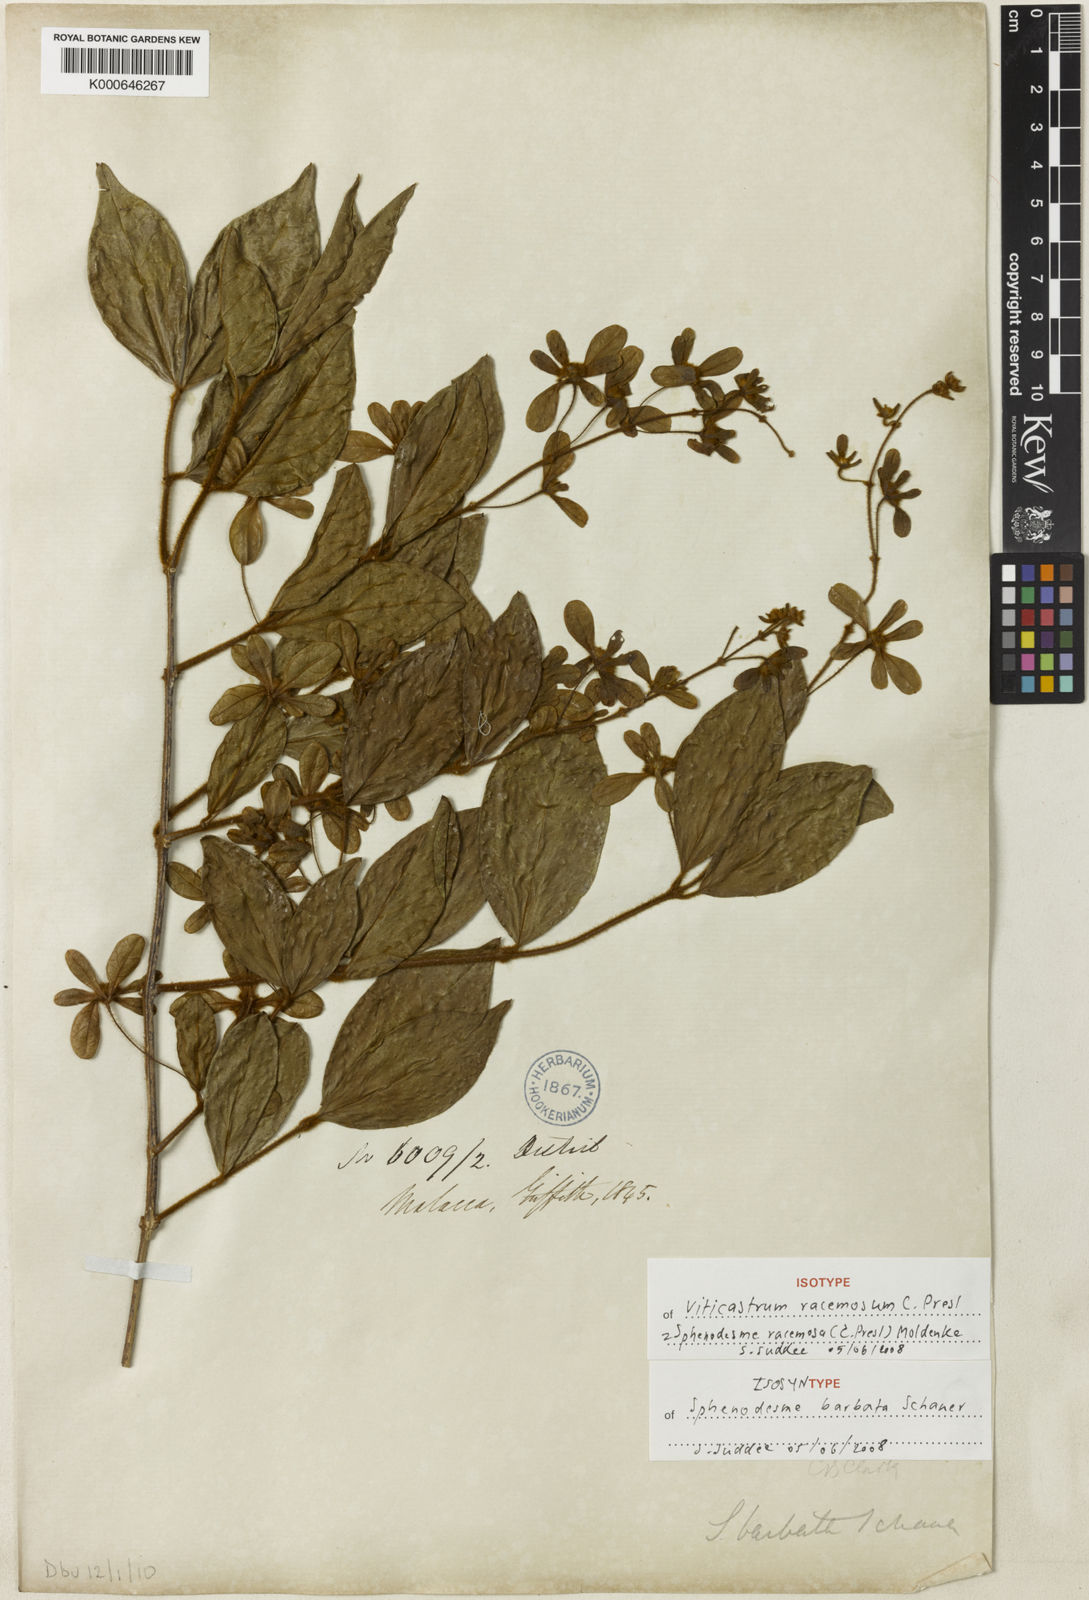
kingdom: Plantae
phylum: Tracheophyta
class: Magnoliopsida
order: Lamiales
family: Lamiaceae
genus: Sphenodesme
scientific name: Sphenodesme racemosa
